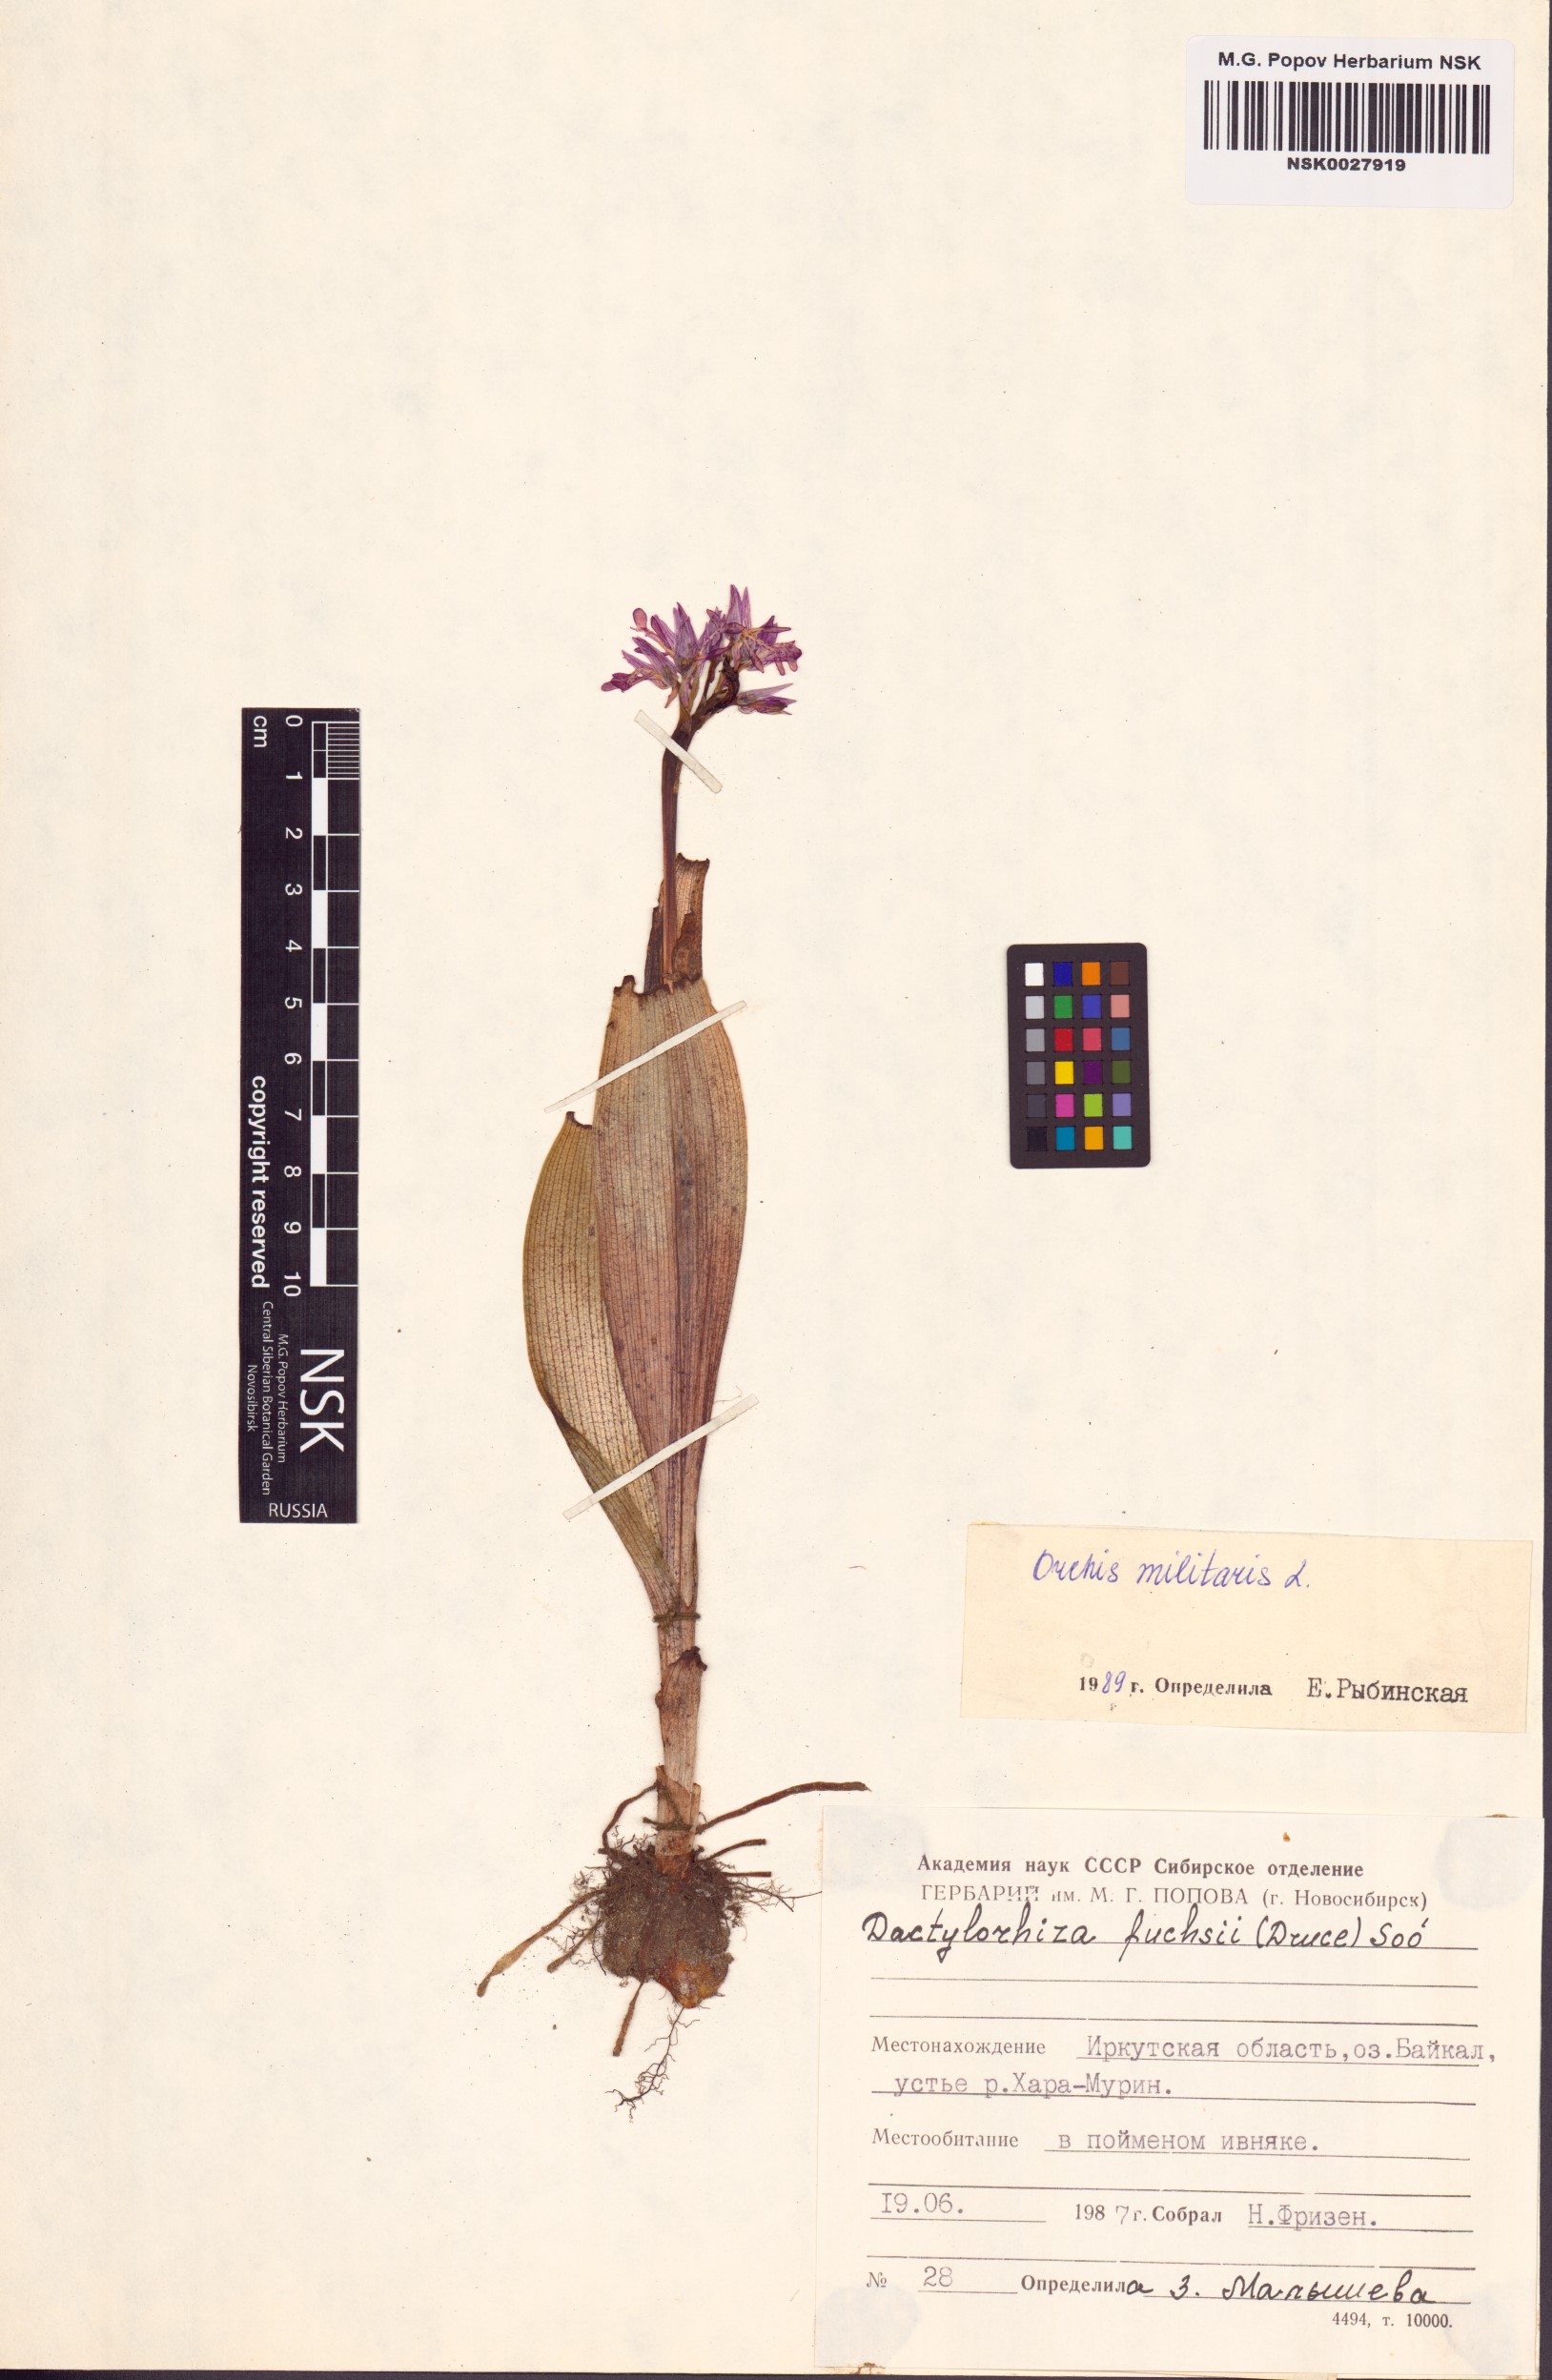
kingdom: Plantae
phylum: Tracheophyta
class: Liliopsida
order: Asparagales
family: Orchidaceae
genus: Orchis
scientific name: Orchis militaris
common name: Military orchid
